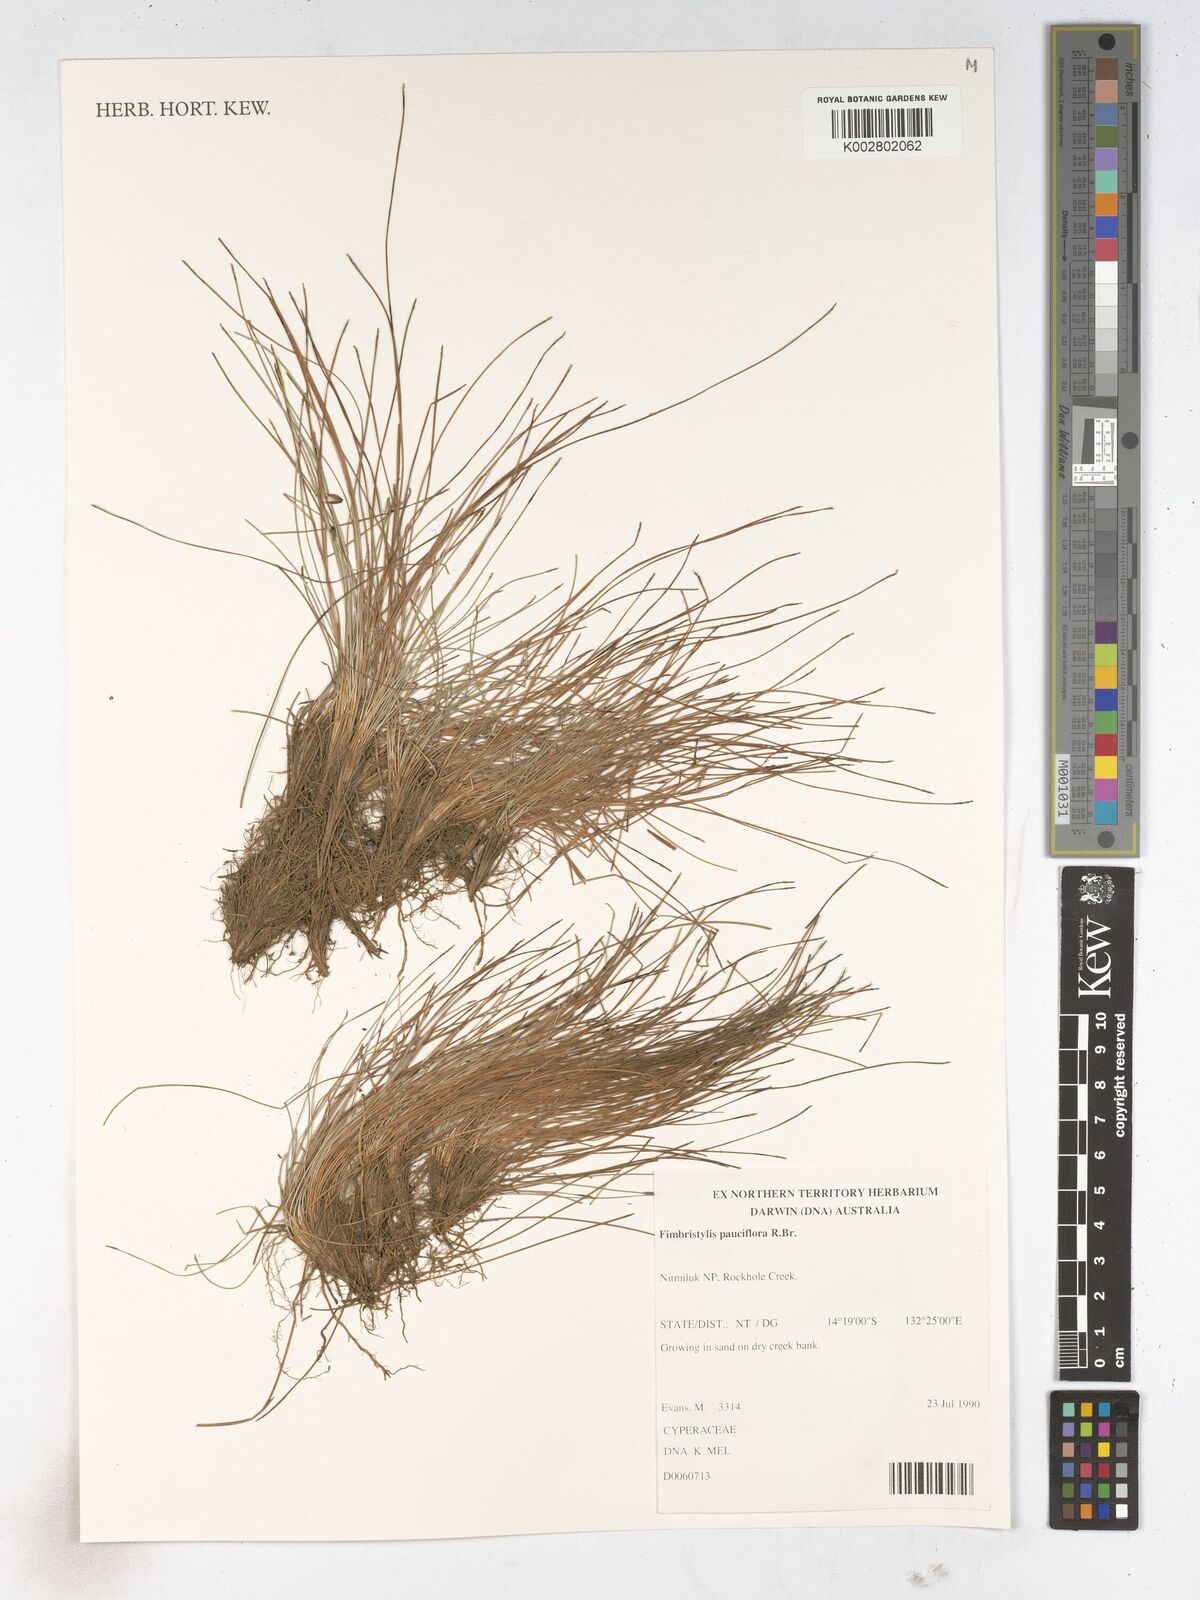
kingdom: Plantae
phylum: Tracheophyta
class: Liliopsida
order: Poales
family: Cyperaceae
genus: Fimbristylis
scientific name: Fimbristylis pauciflora
